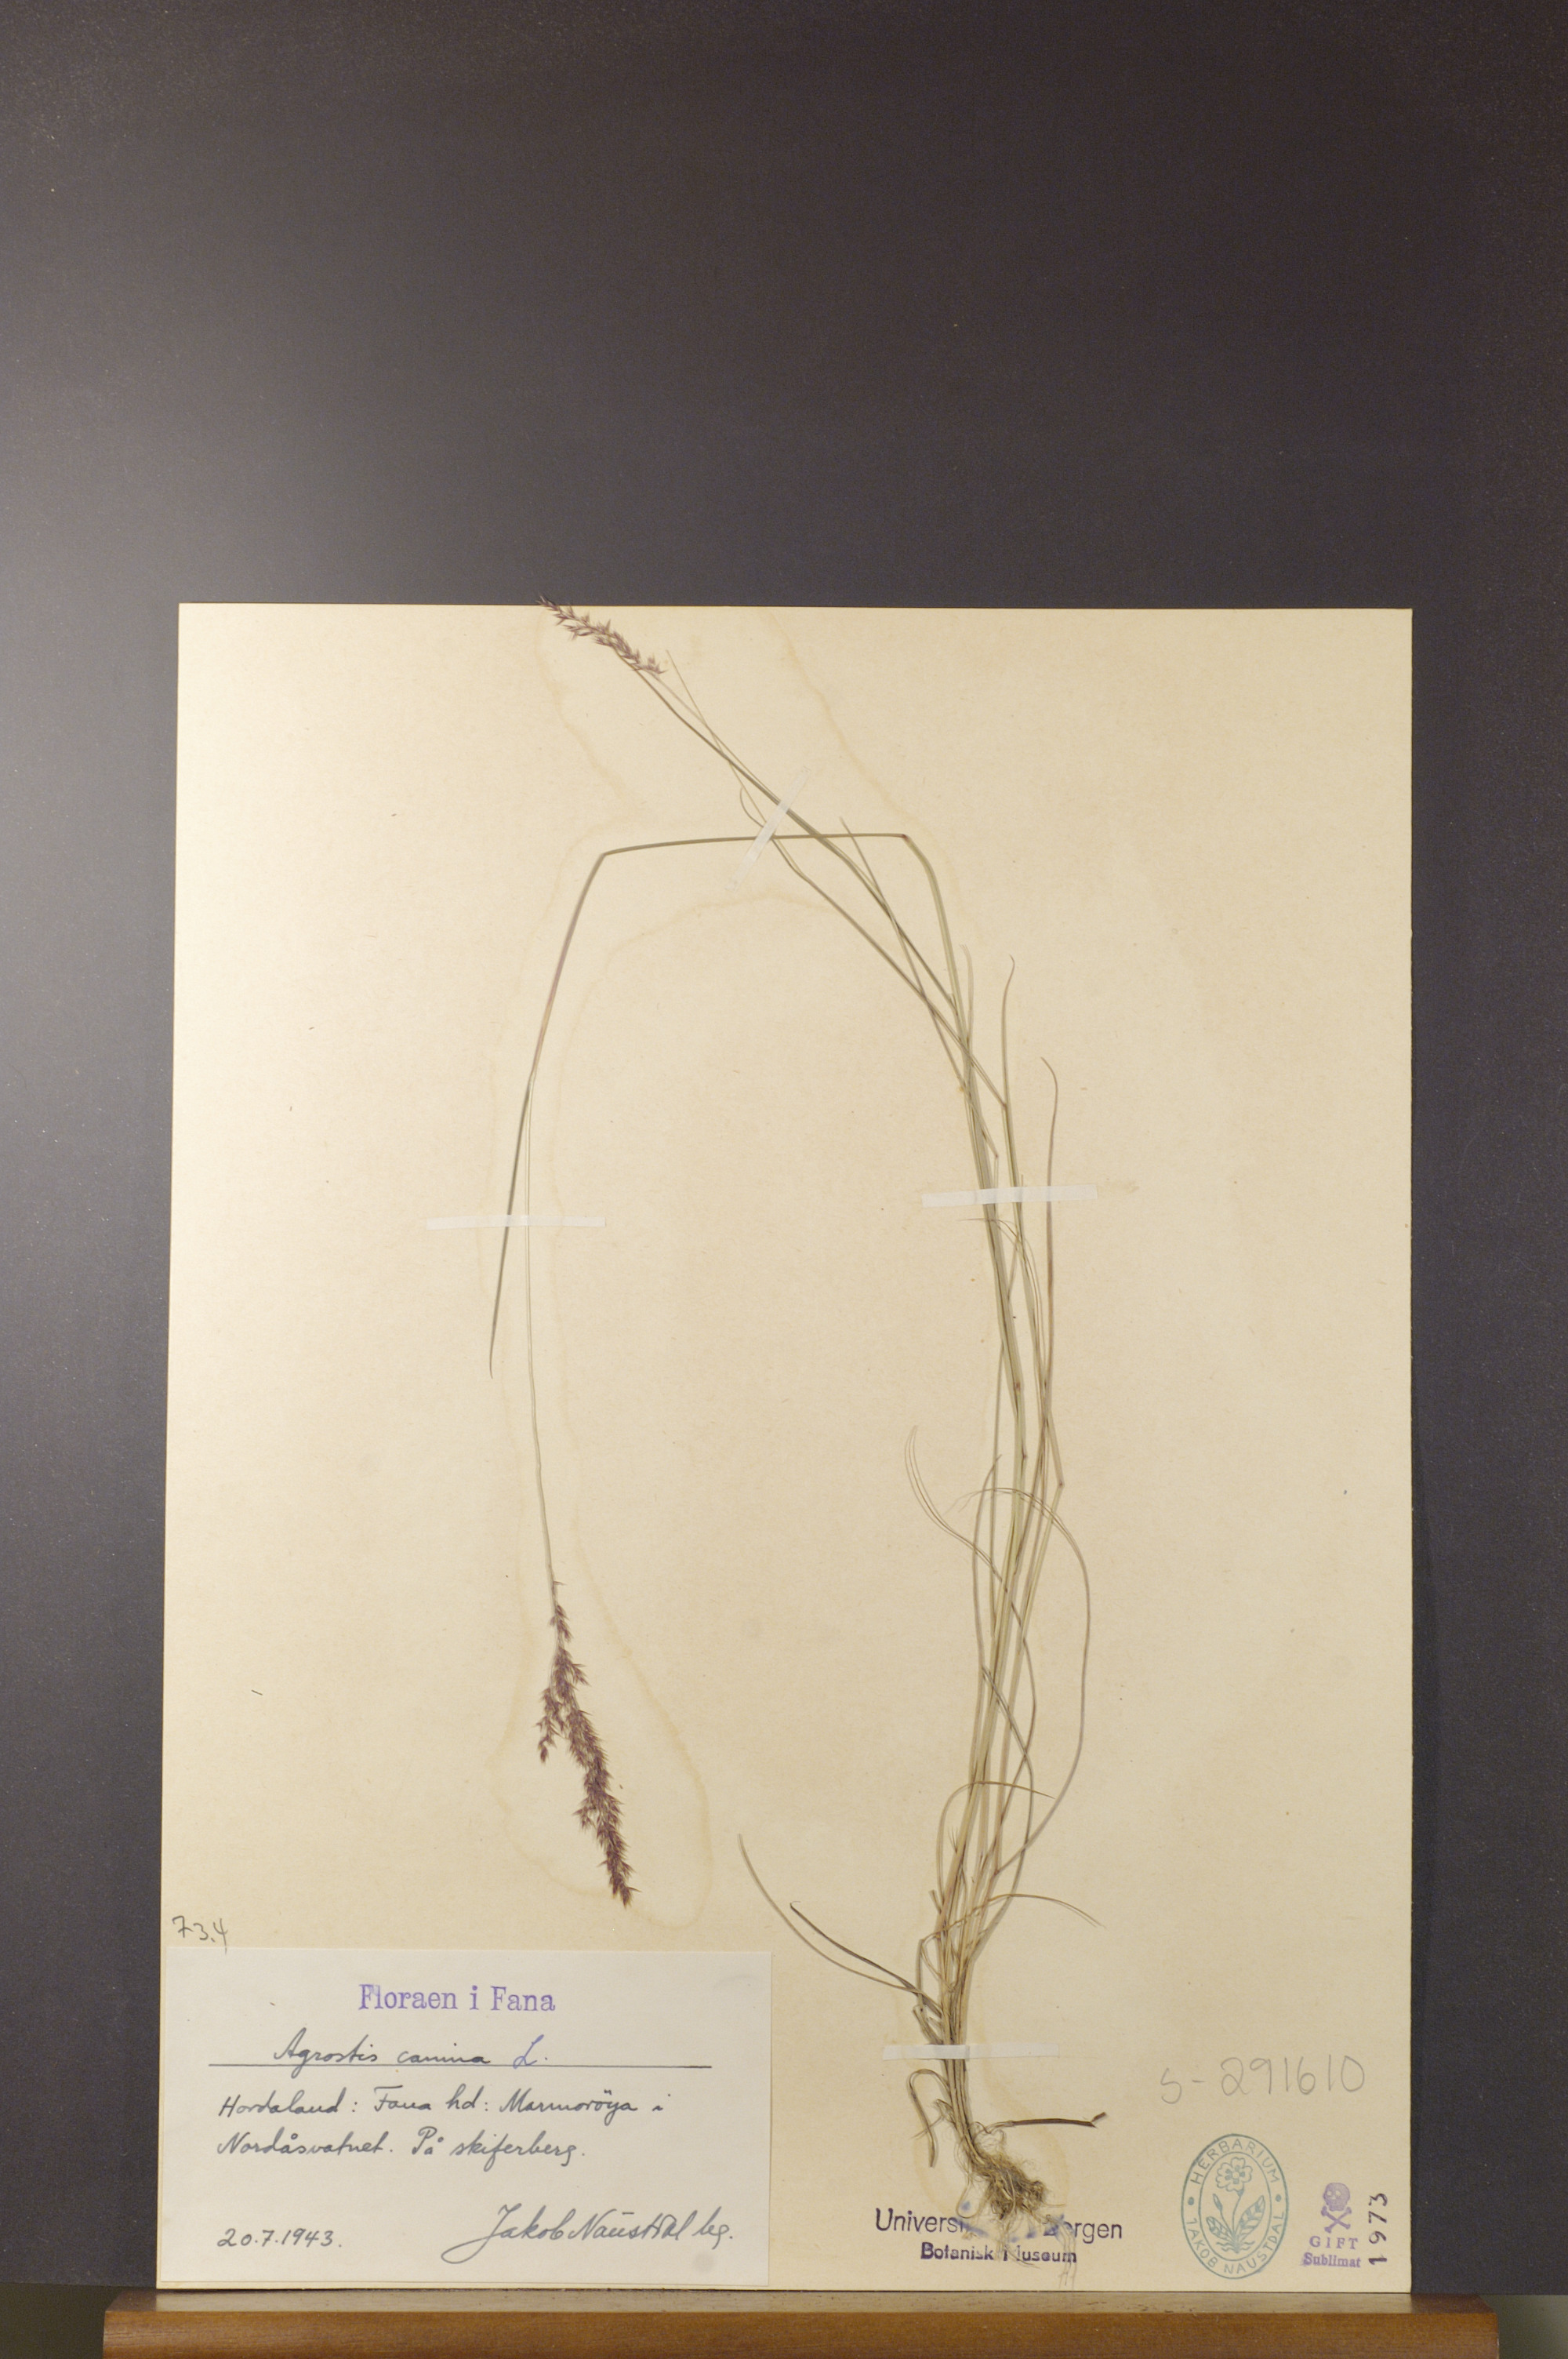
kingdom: Plantae
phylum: Tracheophyta
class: Liliopsida
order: Poales
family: Poaceae
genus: Agrostis
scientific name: Agrostis canina
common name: Velvet bent
